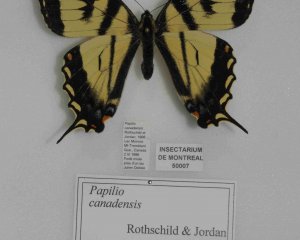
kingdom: Animalia
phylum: Arthropoda
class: Insecta
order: Lepidoptera
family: Papilionidae
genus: Pterourus
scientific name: Pterourus canadensis
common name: Canadian Tiger Swallowtail
